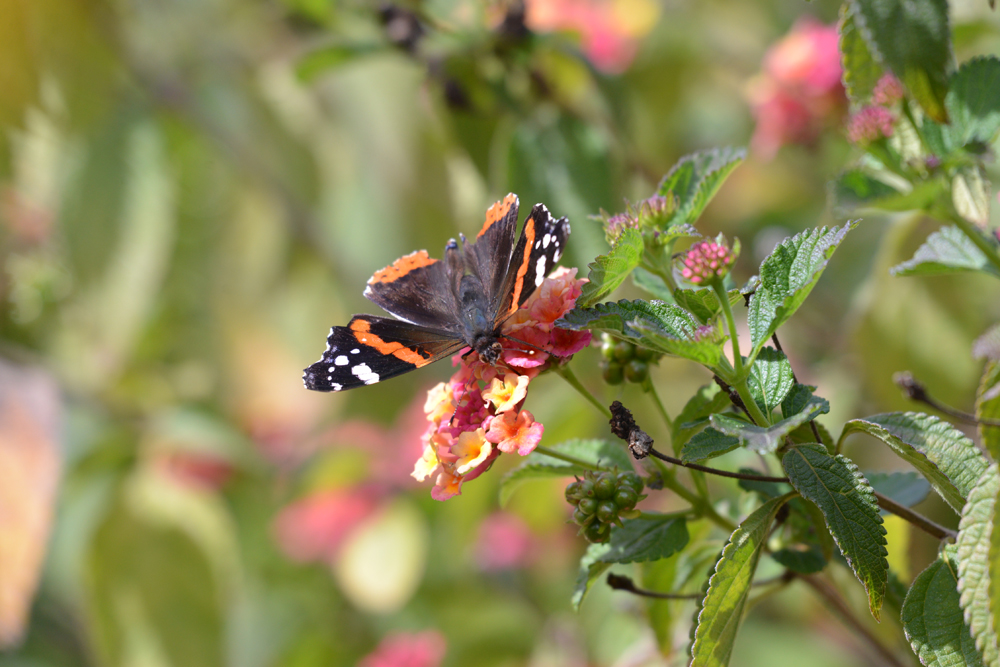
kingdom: Animalia
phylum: Arthropoda
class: Insecta
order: Lepidoptera
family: Nymphalidae
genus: Vanessa
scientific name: Vanessa atalanta
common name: Red admiral
